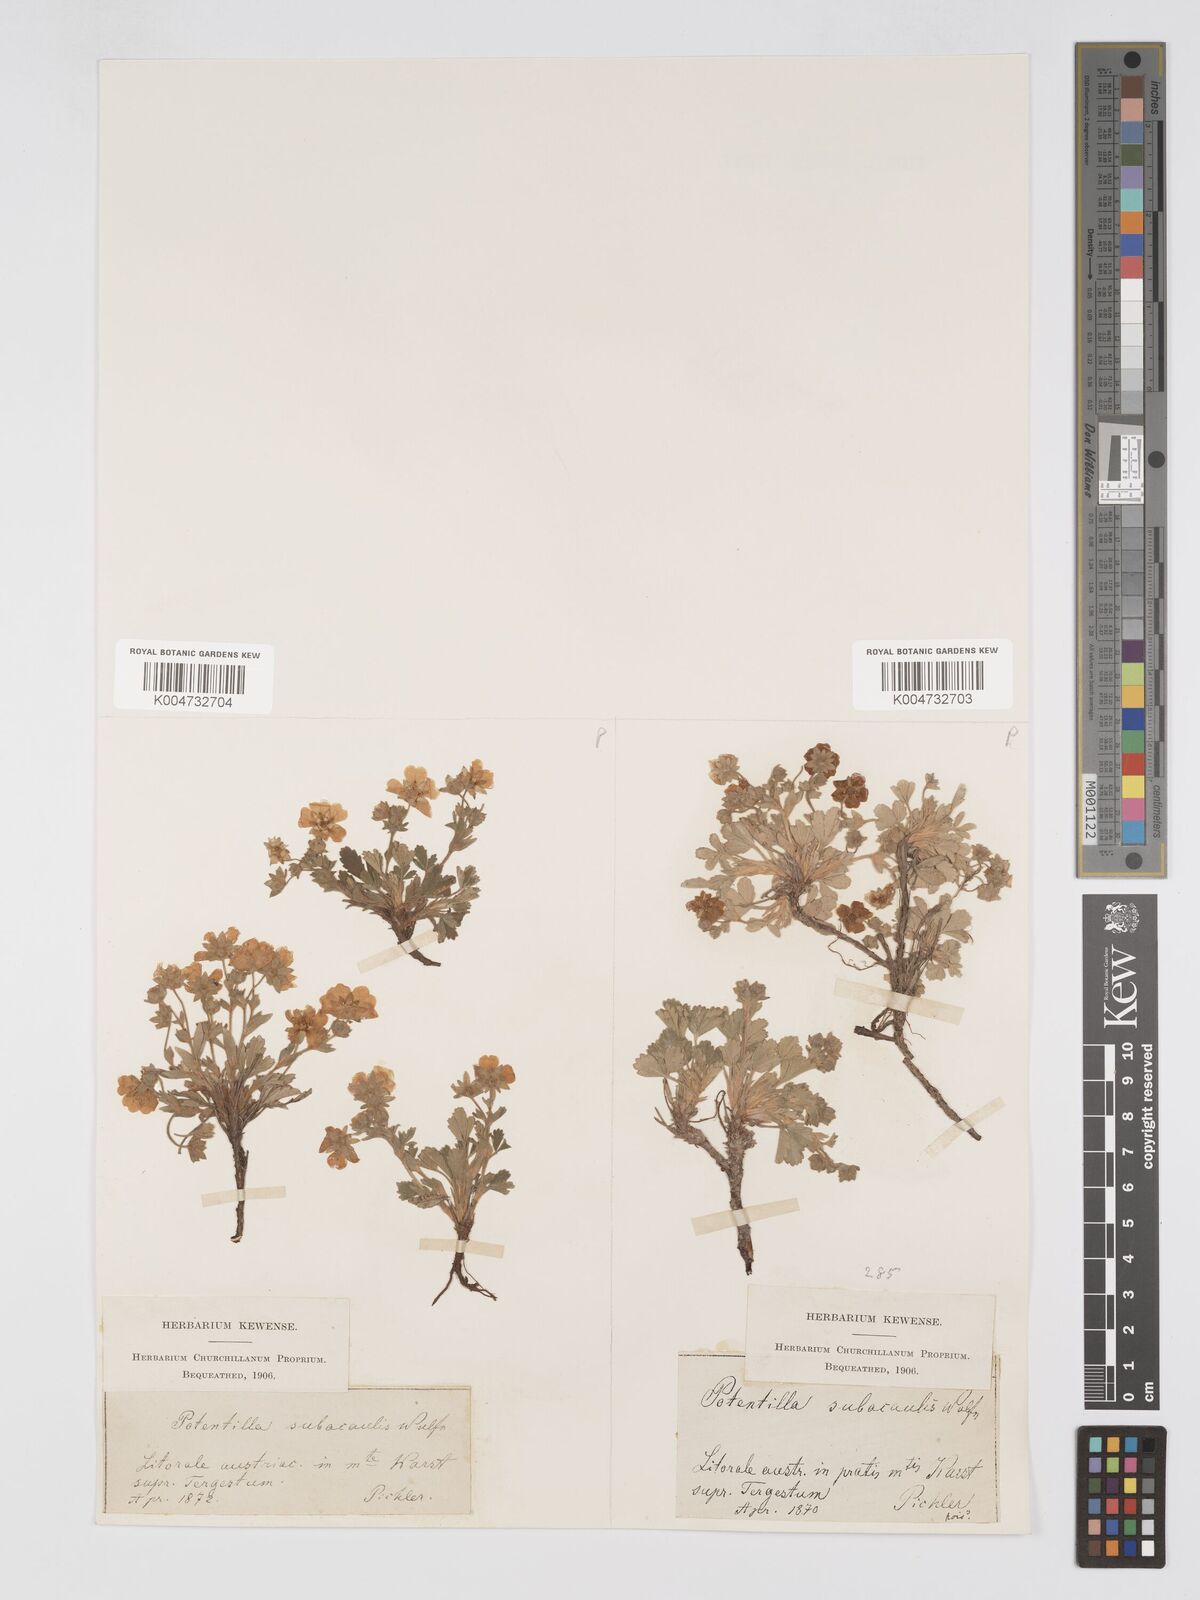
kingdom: Plantae
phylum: Tracheophyta
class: Magnoliopsida
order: Rosales
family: Rosaceae
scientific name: Rosaceae
